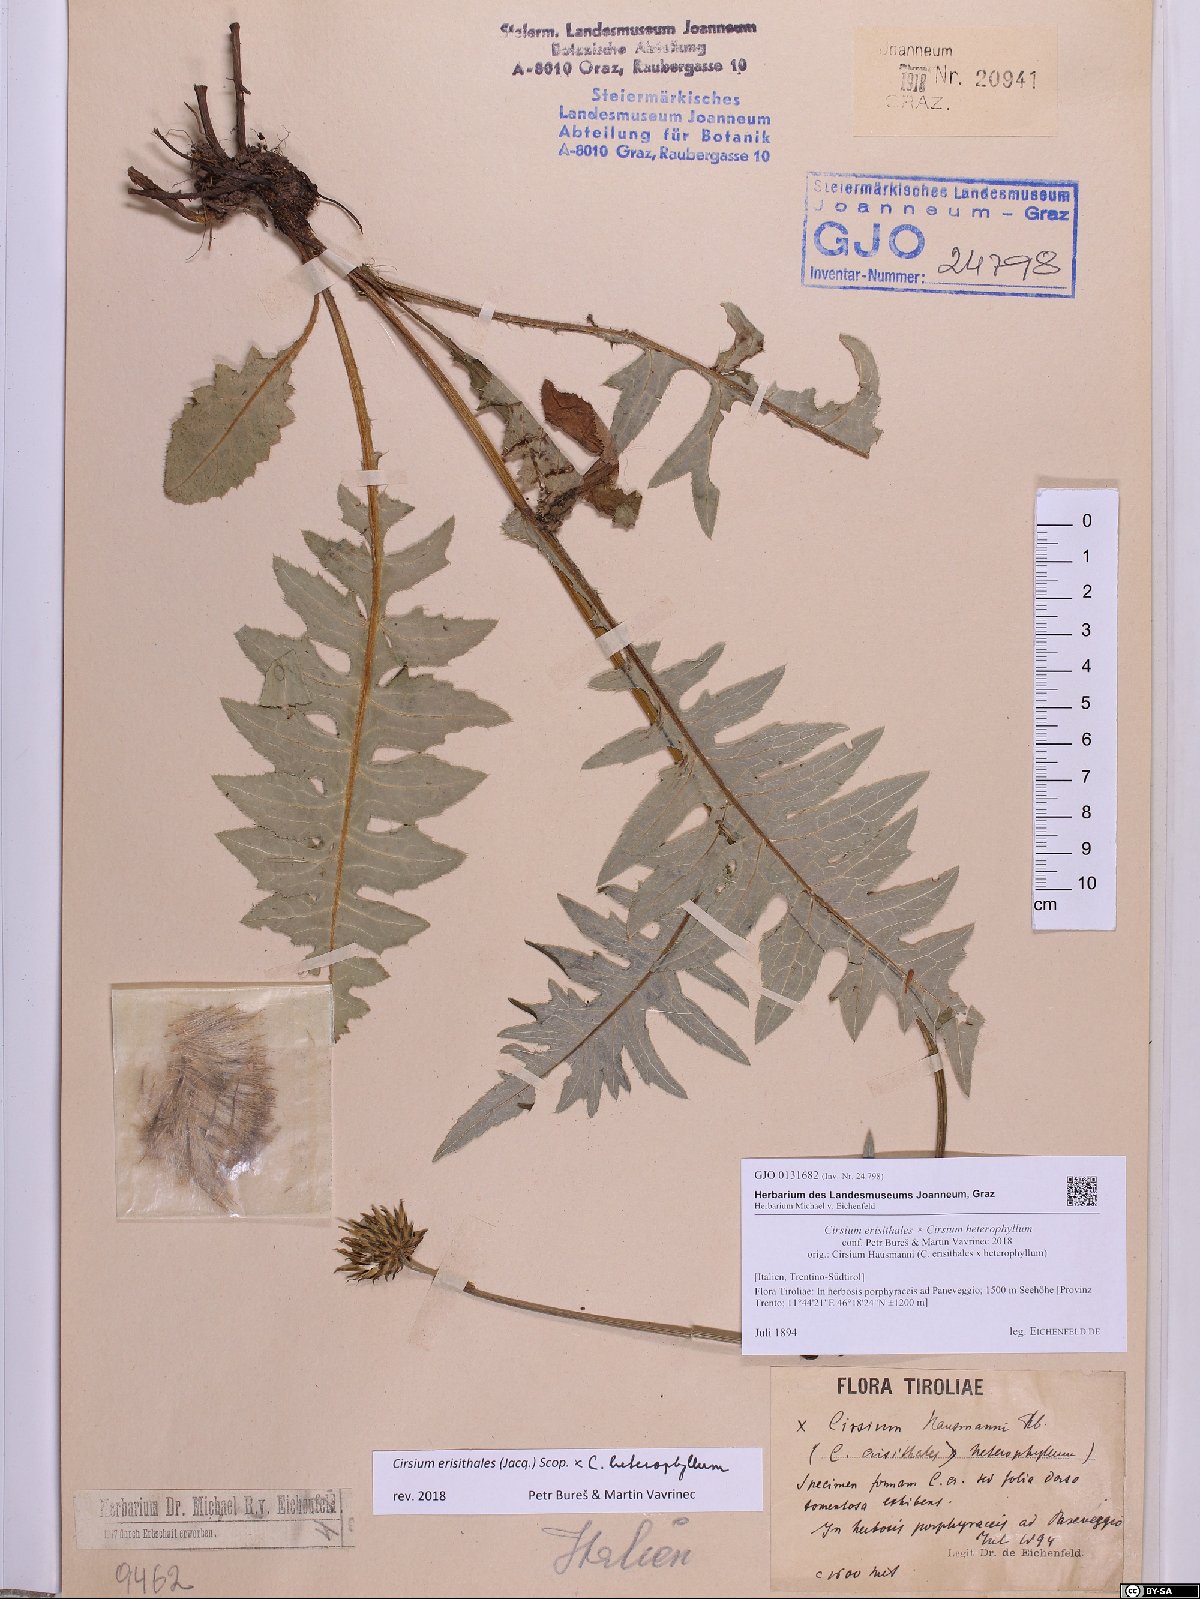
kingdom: Plantae
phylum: Tracheophyta
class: Magnoliopsida
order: Asterales
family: Asteraceae
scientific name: Asteraceae
